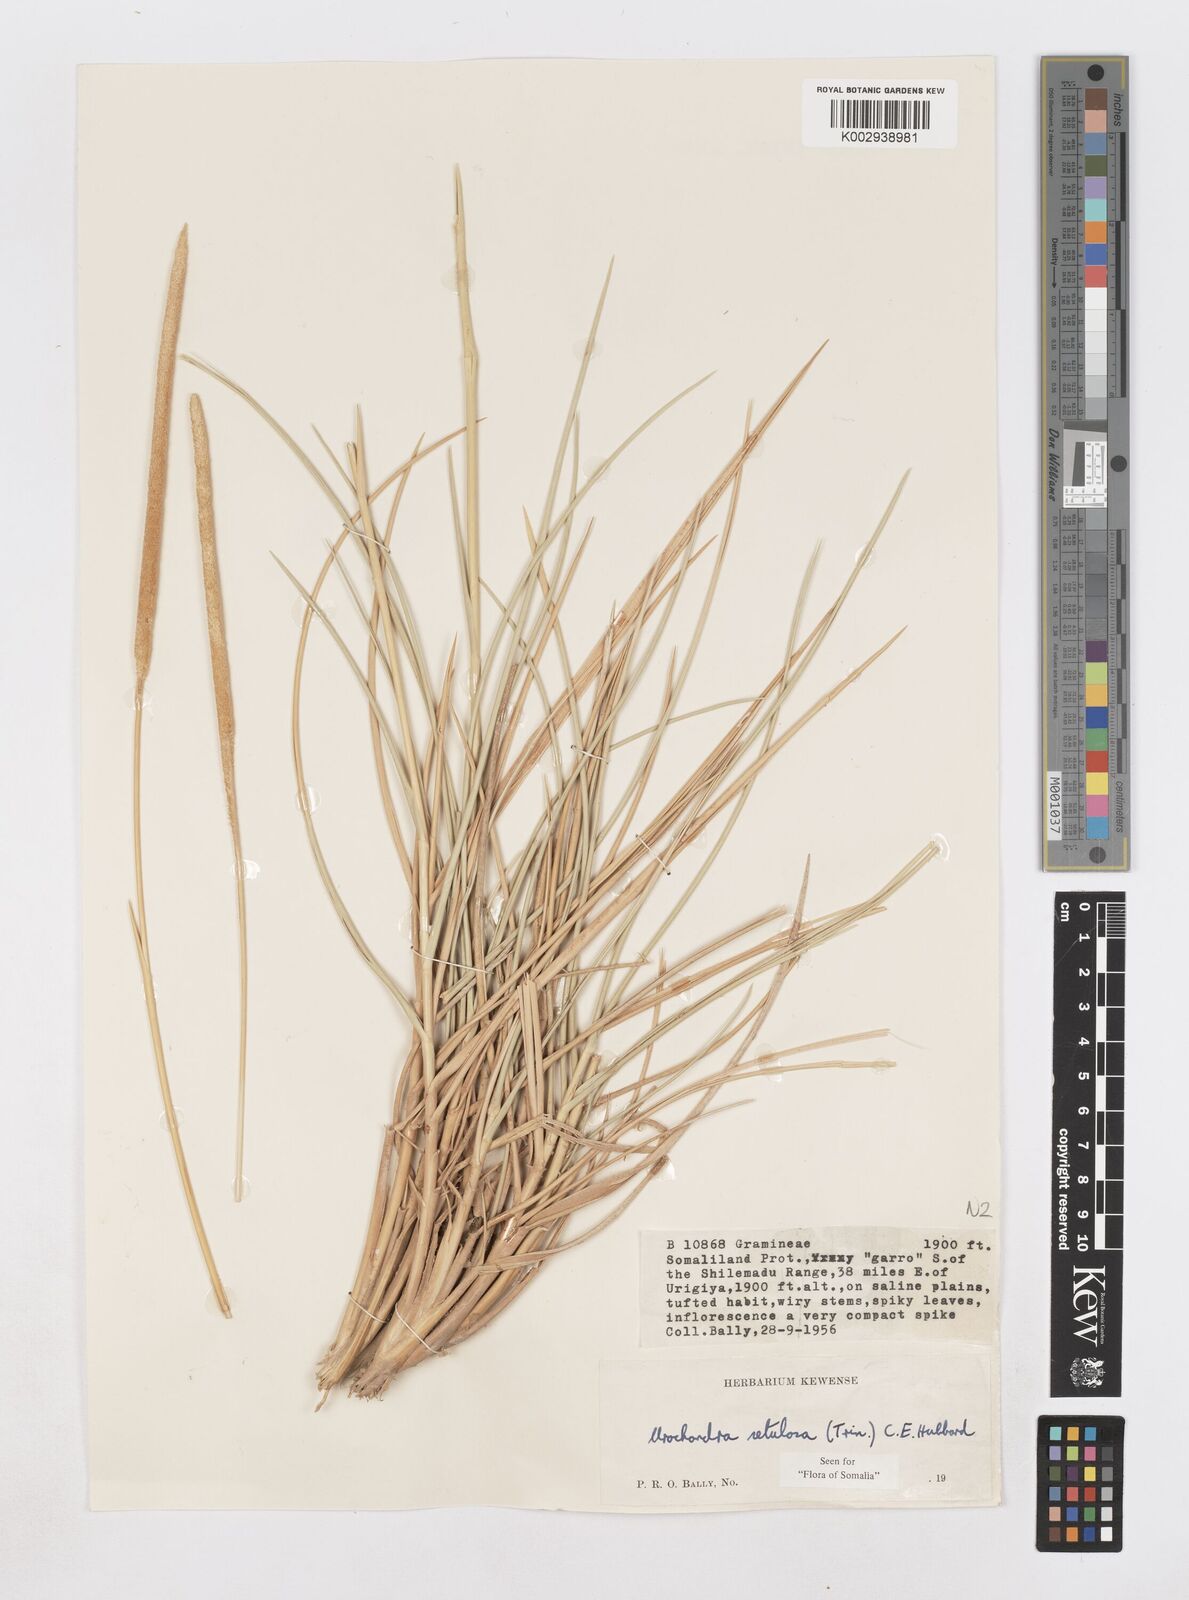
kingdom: Plantae
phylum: Tracheophyta
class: Liliopsida
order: Poales
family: Poaceae
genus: Urochondra
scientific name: Urochondra setulosa
